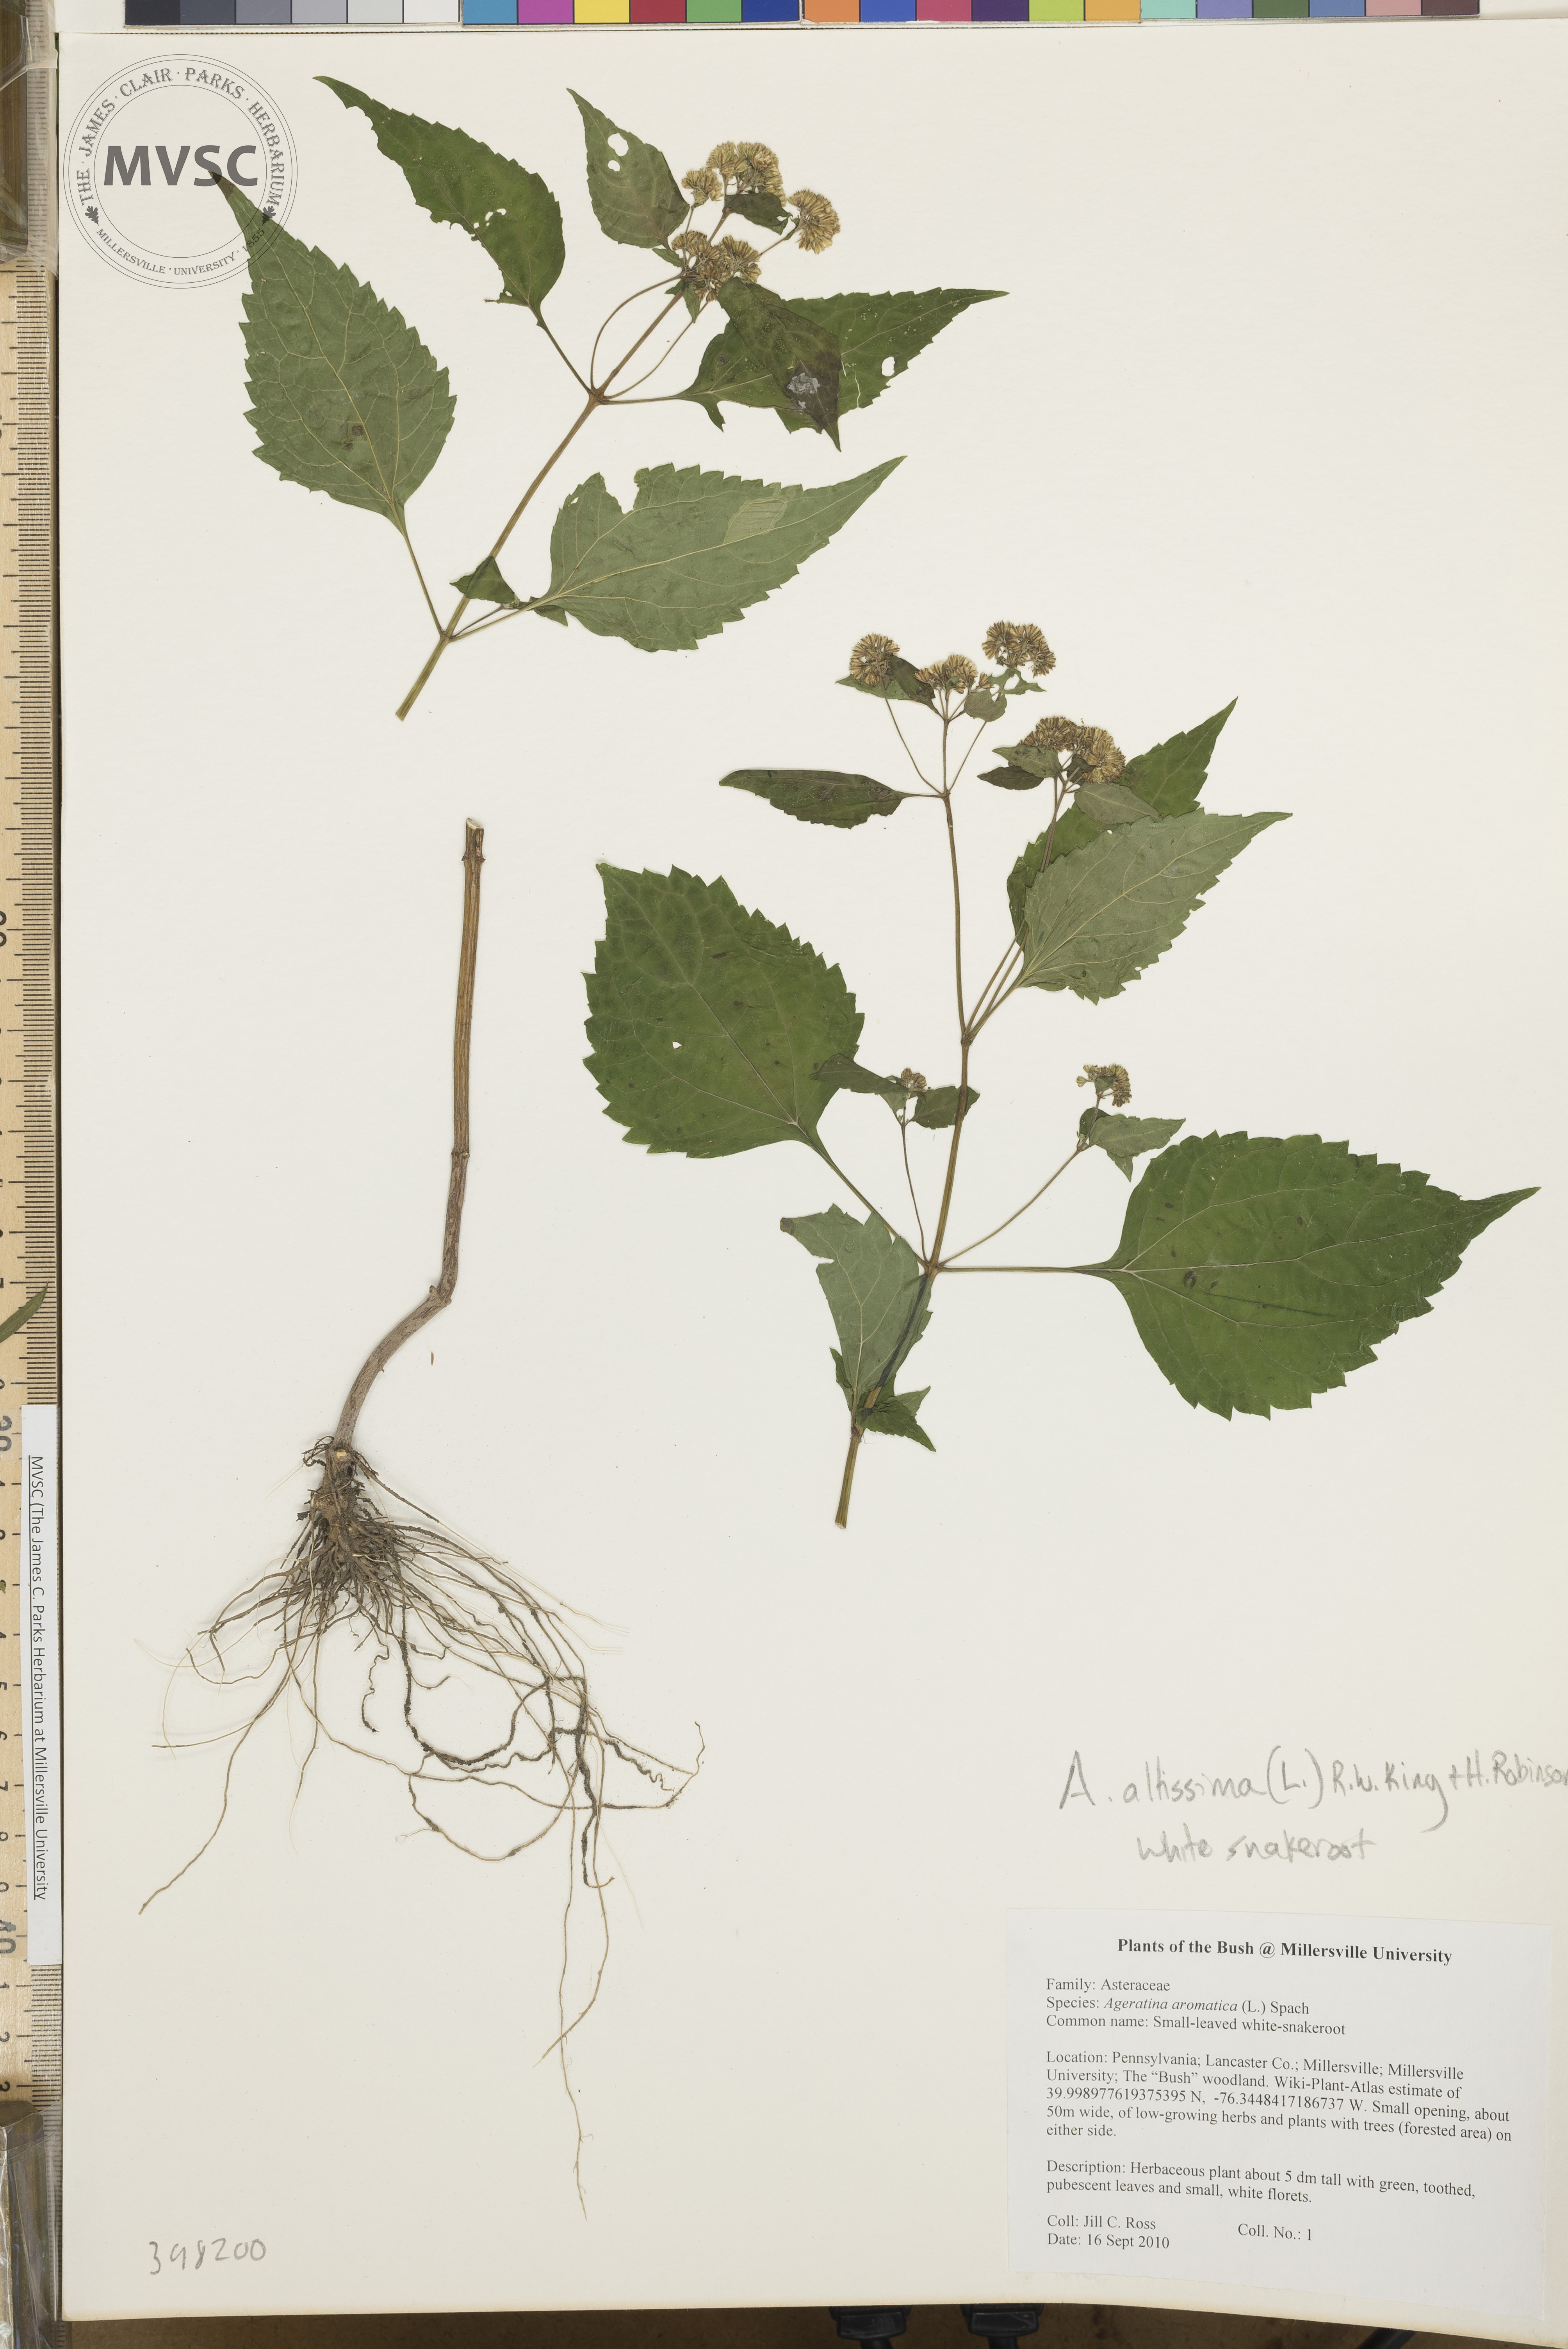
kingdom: Plantae
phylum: Tracheophyta
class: Magnoliopsida
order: Asterales
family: Asteraceae
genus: Ageratina
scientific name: Ageratina altissima
